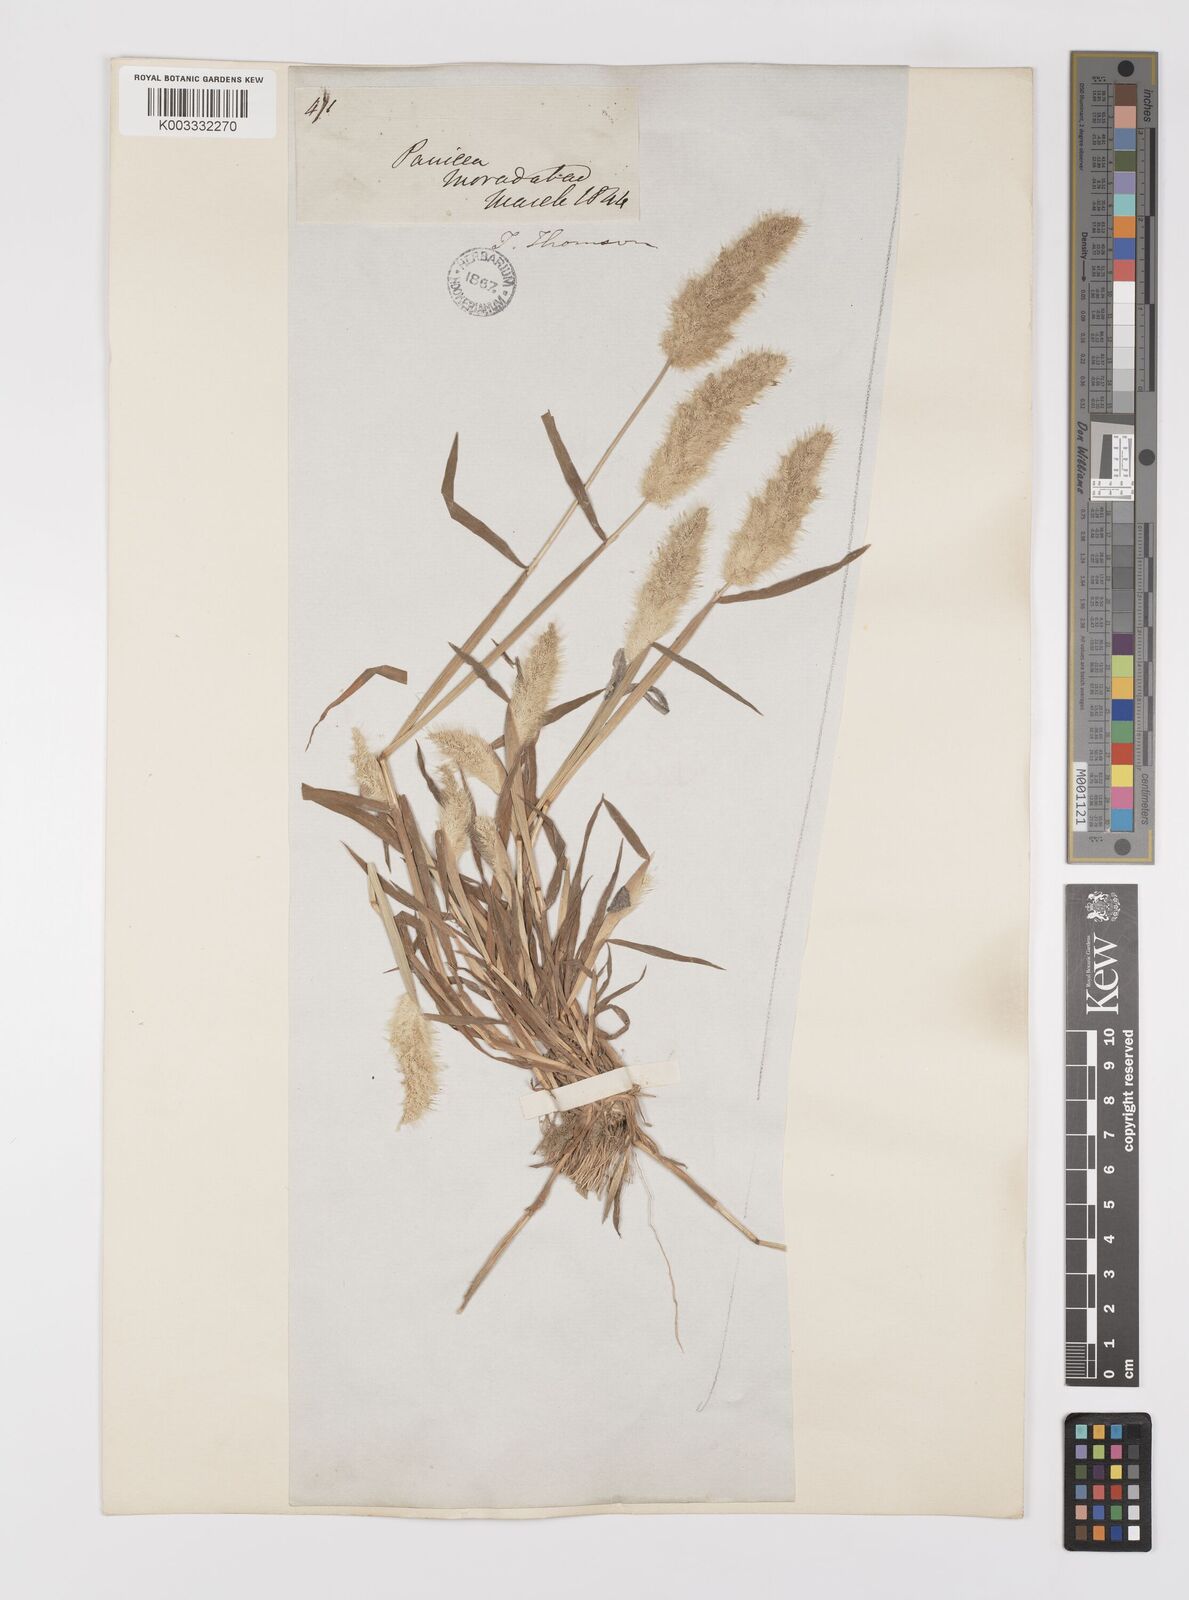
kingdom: Plantae
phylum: Tracheophyta
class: Liliopsida
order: Poales
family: Poaceae
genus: Polypogon
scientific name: Polypogon monspeliensis
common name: Annual rabbitsfoot grass
